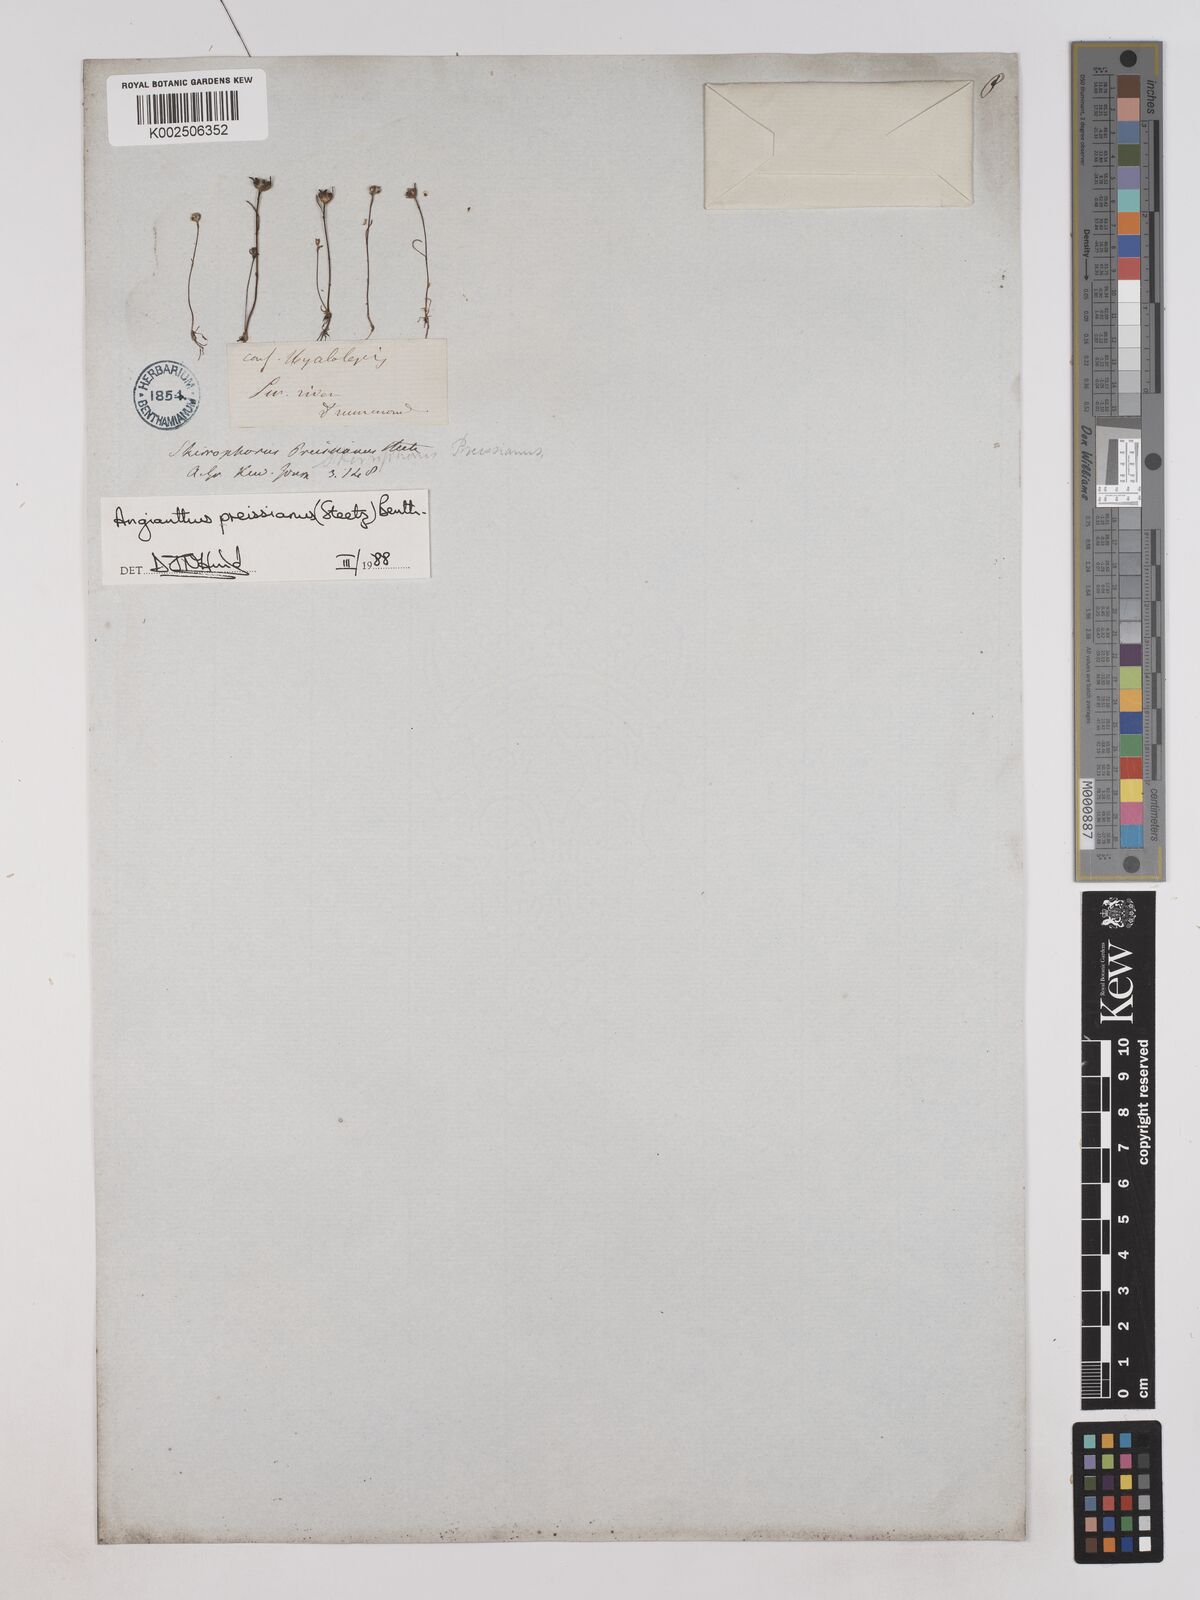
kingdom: Plantae
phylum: Tracheophyta
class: Magnoliopsida
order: Asterales
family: Asteraceae
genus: Angianthus
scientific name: Angianthus preissianus
